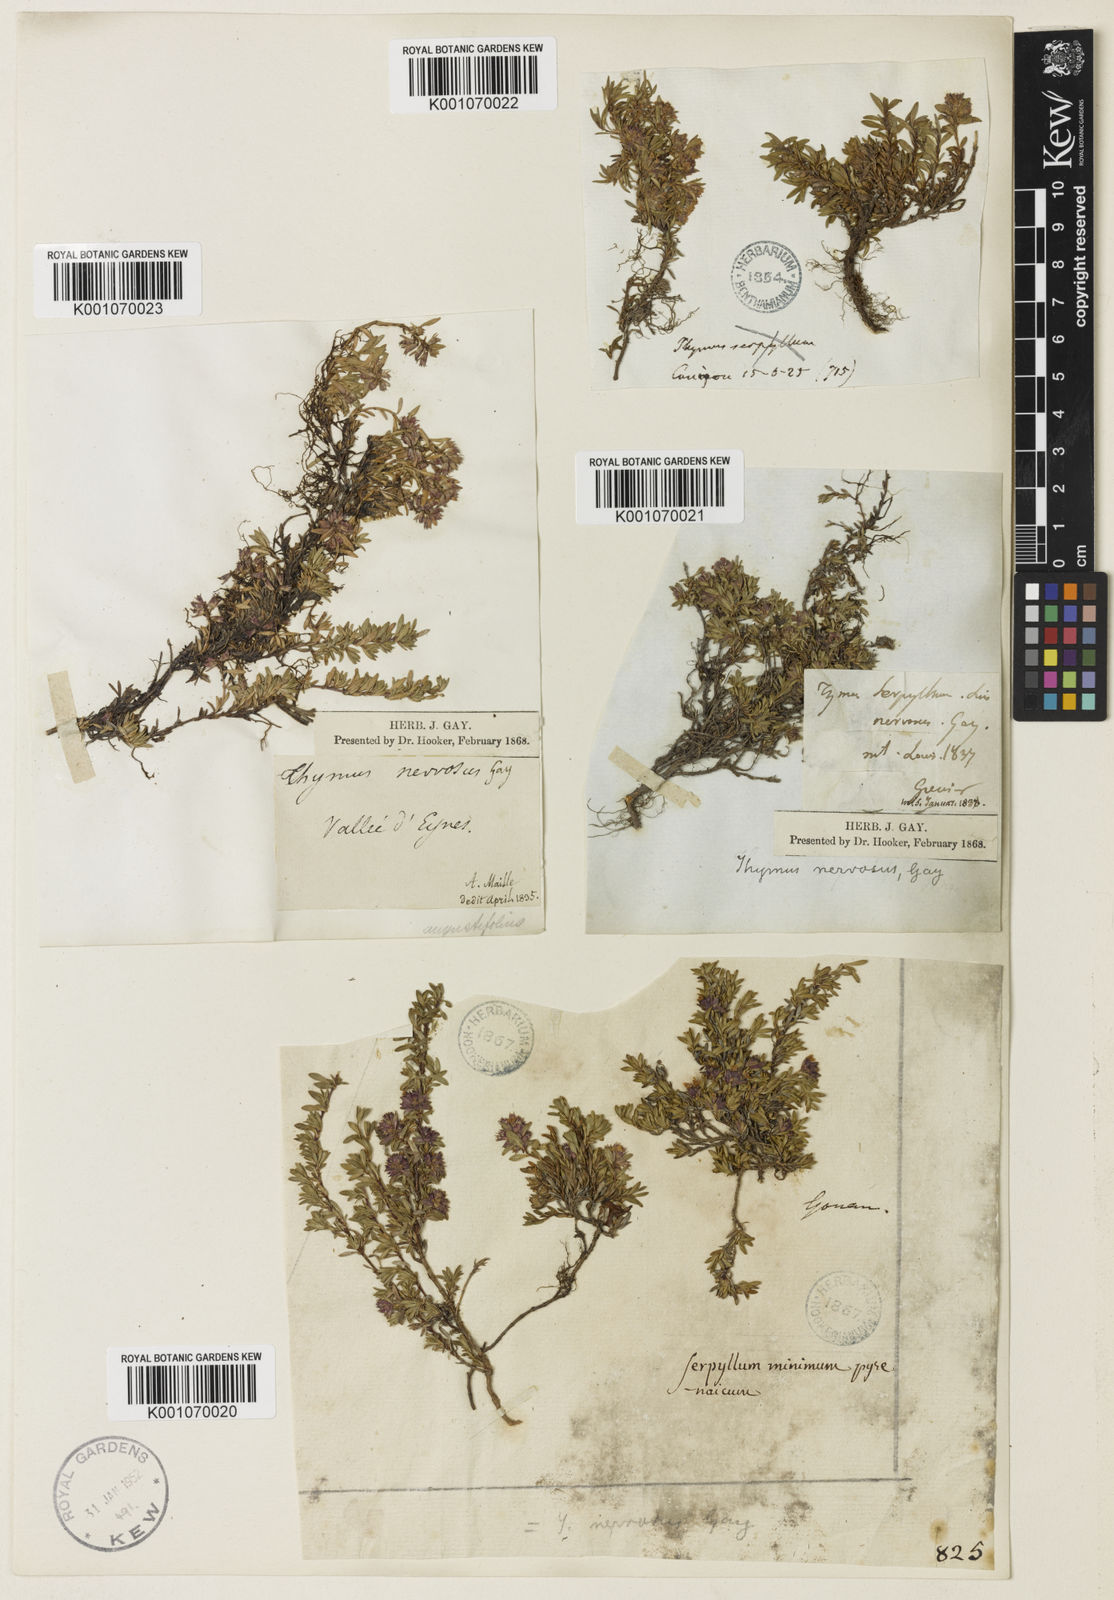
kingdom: Plantae
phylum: Tracheophyta
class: Magnoliopsida
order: Lamiales
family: Lamiaceae
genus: Thymus
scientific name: Thymus nervosus
